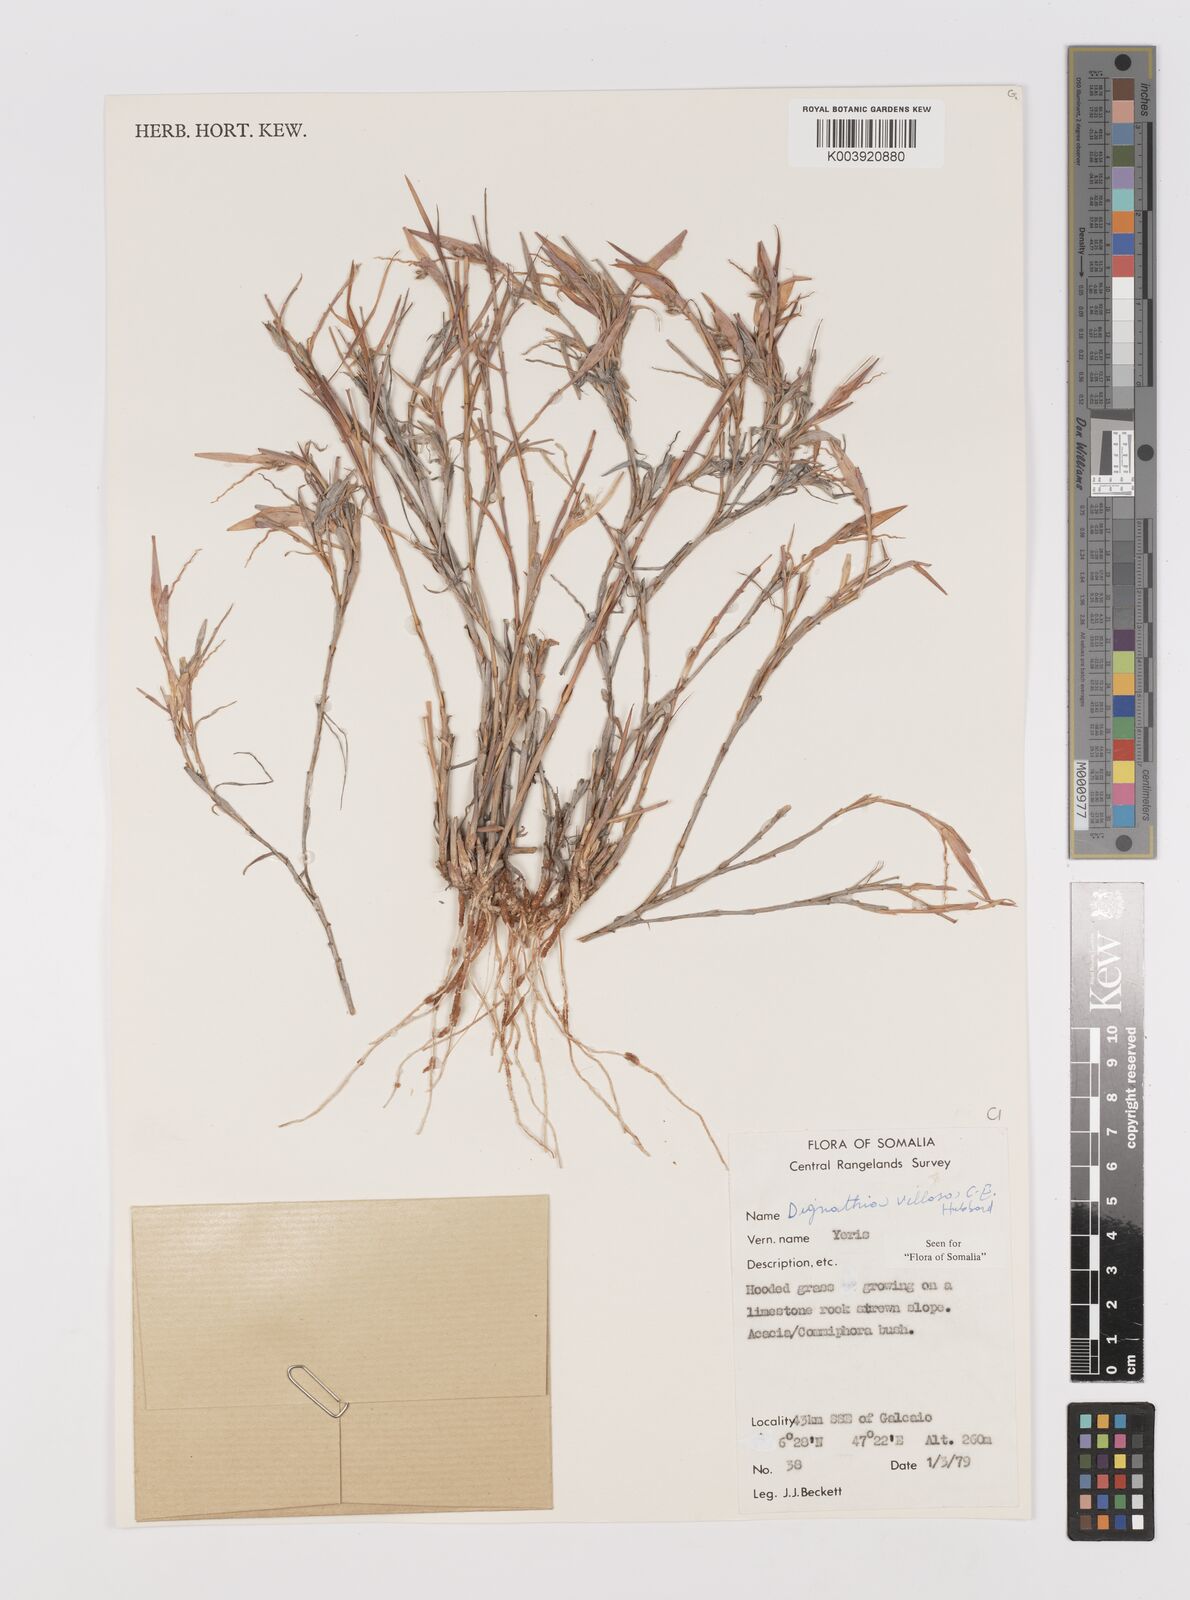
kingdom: Plantae
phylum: Tracheophyta
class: Liliopsida
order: Poales
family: Poaceae
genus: Dignathia
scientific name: Dignathia villosa
